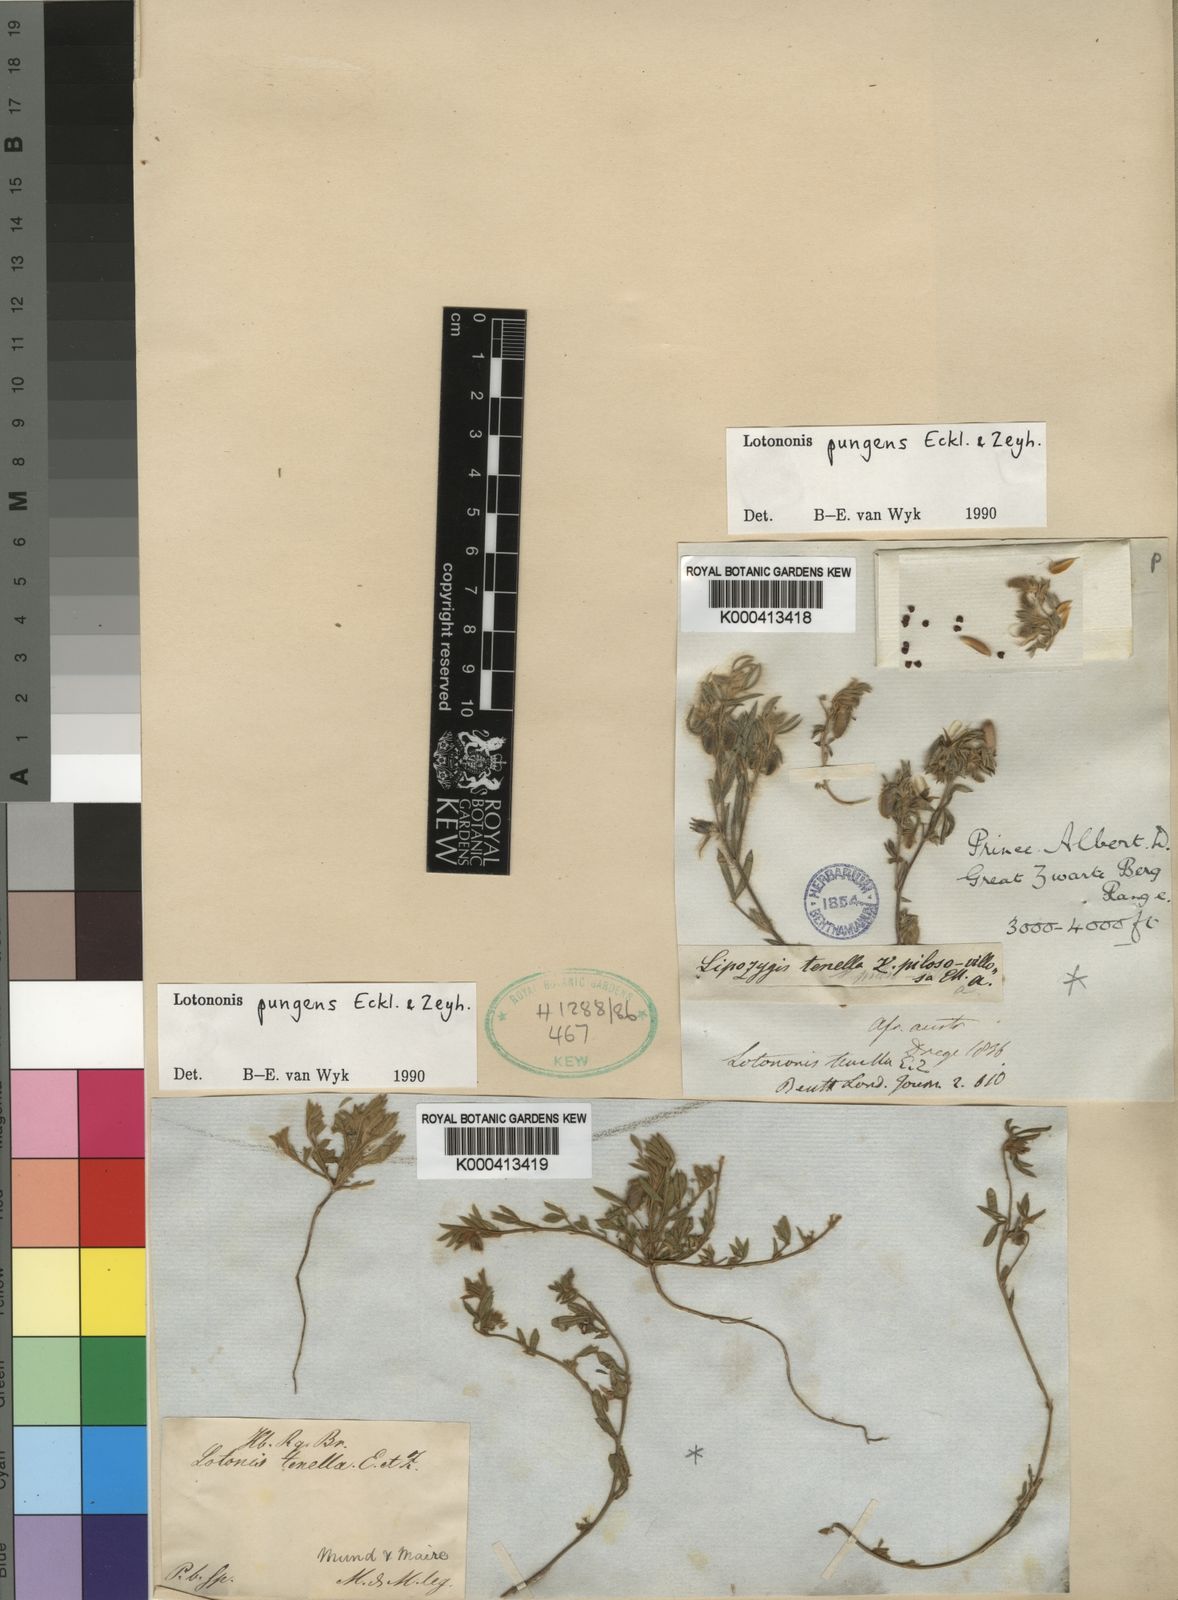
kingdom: Plantae
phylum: Tracheophyta
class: Magnoliopsida
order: Fabales
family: Fabaceae
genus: Lotononis
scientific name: Lotononis pungens
